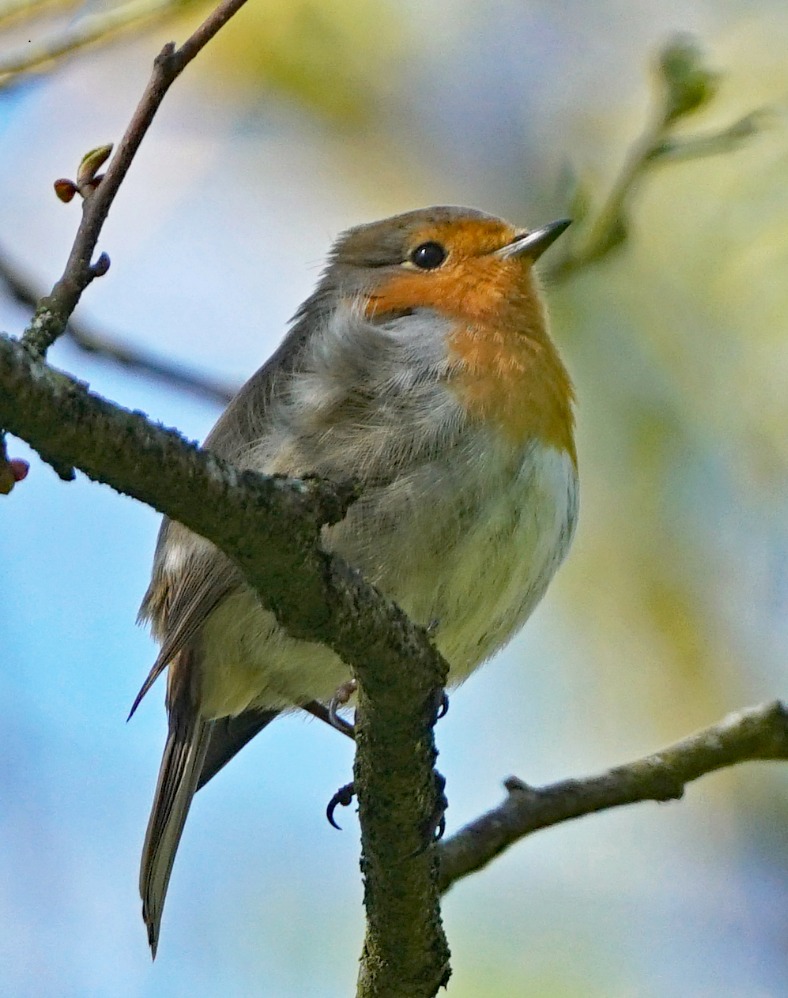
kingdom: Animalia
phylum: Chordata
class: Aves
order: Passeriformes
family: Muscicapidae
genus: Erithacus
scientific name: Erithacus rubecula
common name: Rødhals/rødkælk
